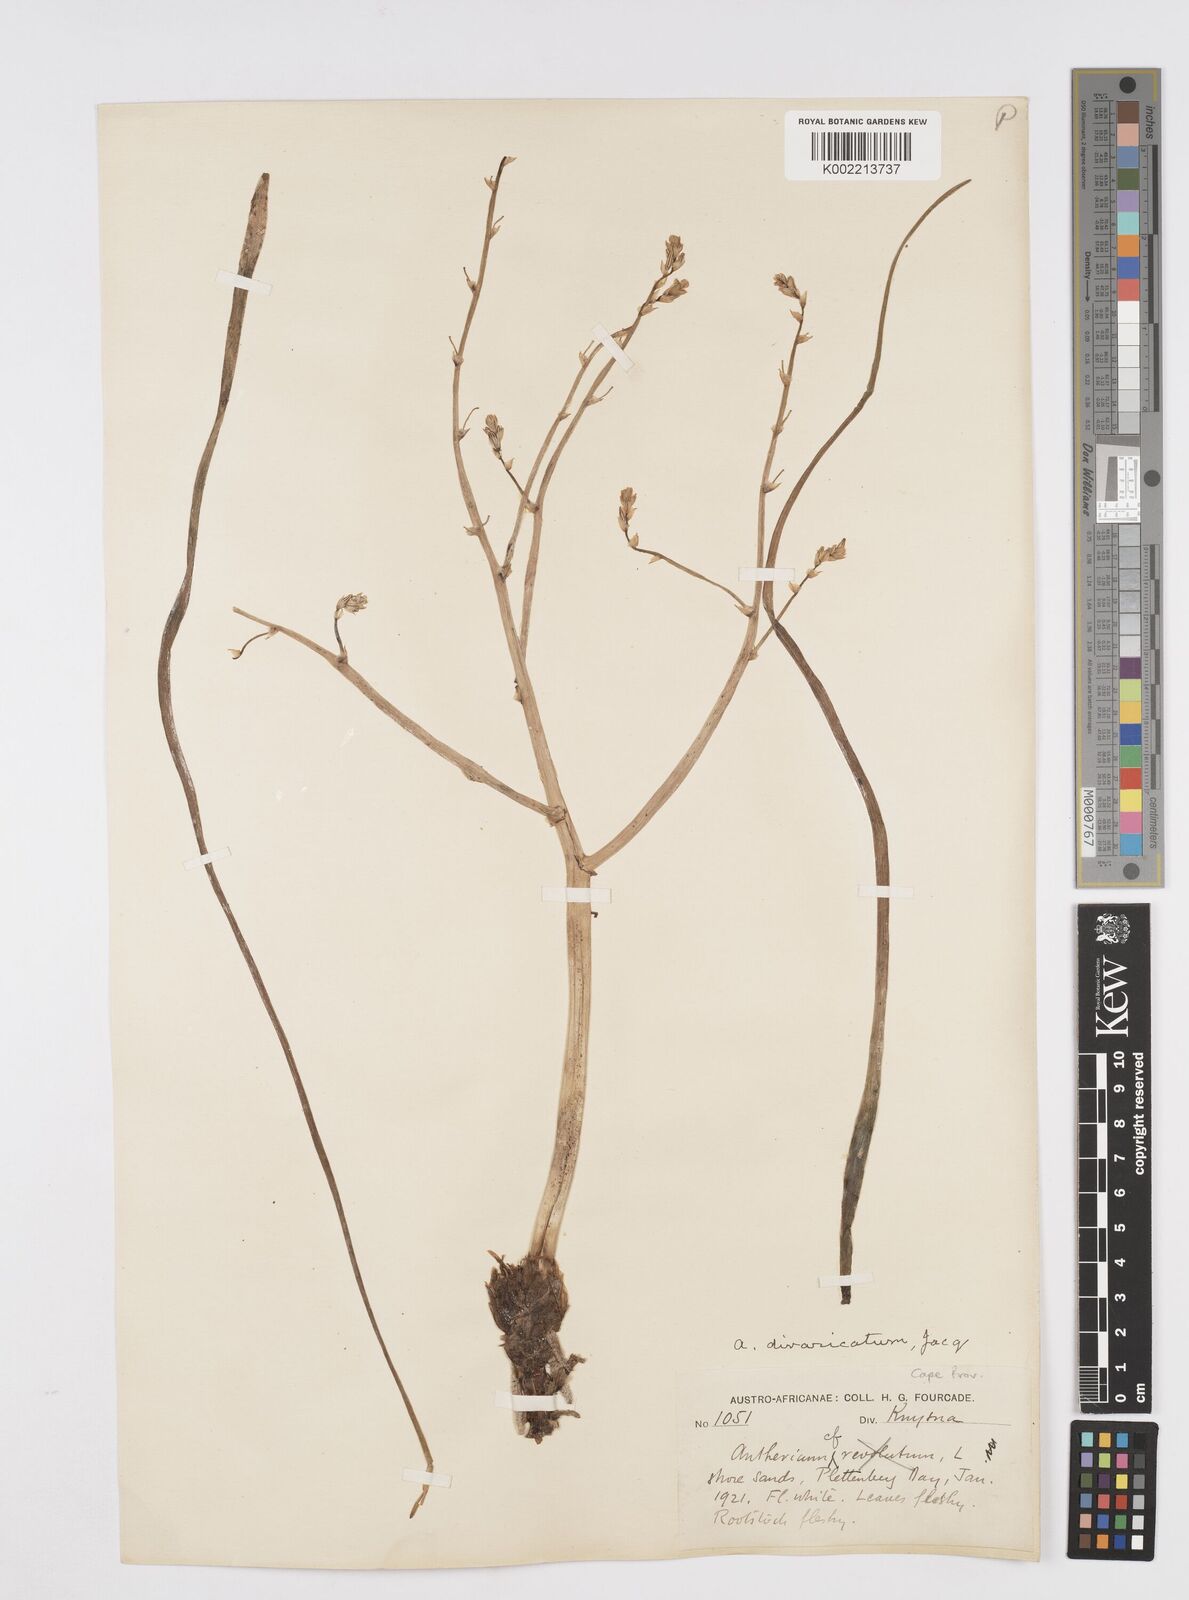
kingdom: Plantae
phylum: Tracheophyta
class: Liliopsida
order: Asparagales
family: Asphodelaceae
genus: Trachyandra
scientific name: Trachyandra divaricata
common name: Dune onionweed
